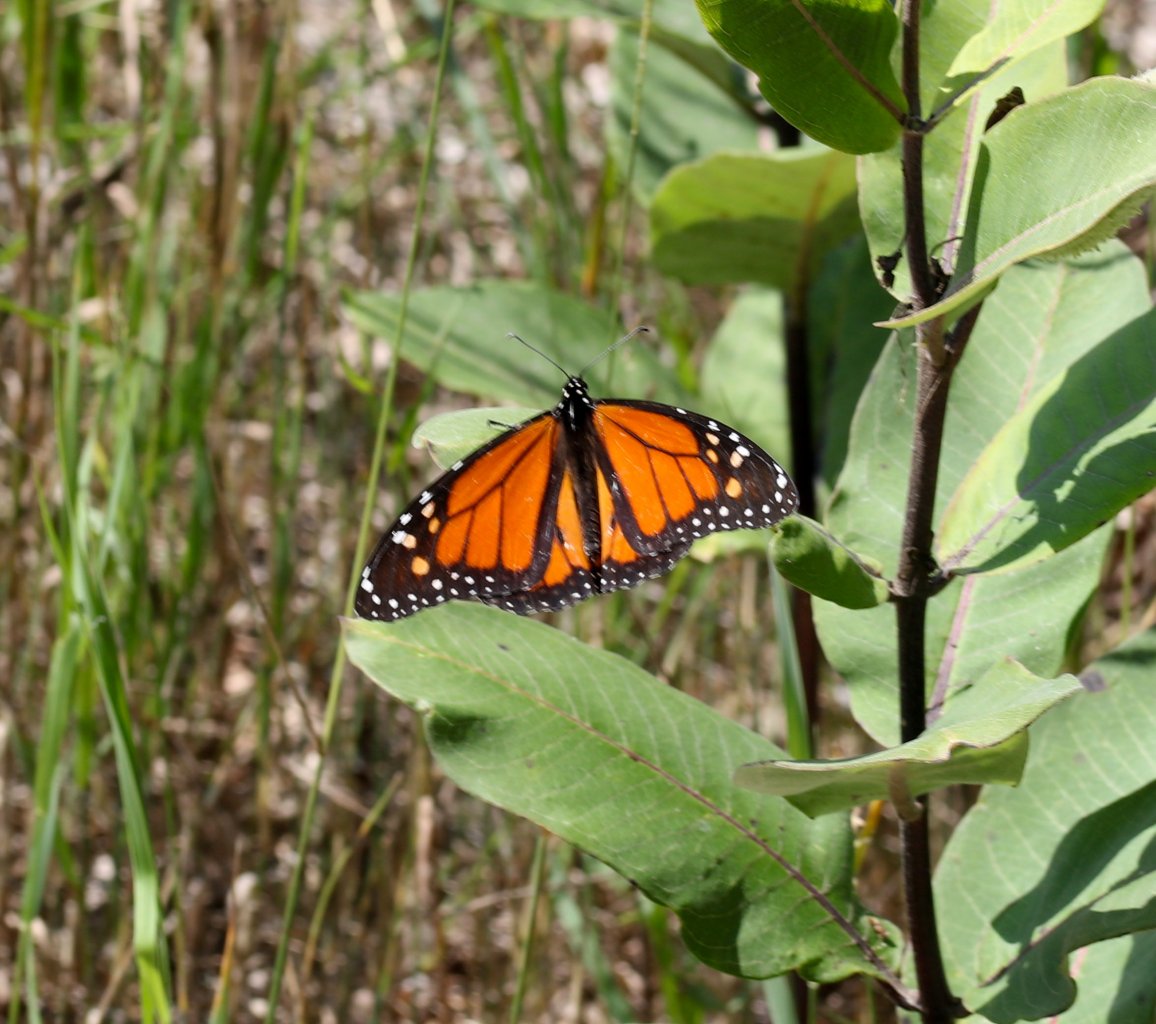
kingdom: Animalia
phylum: Arthropoda
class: Insecta
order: Lepidoptera
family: Nymphalidae
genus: Danaus
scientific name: Danaus plexippus
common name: Monarch
